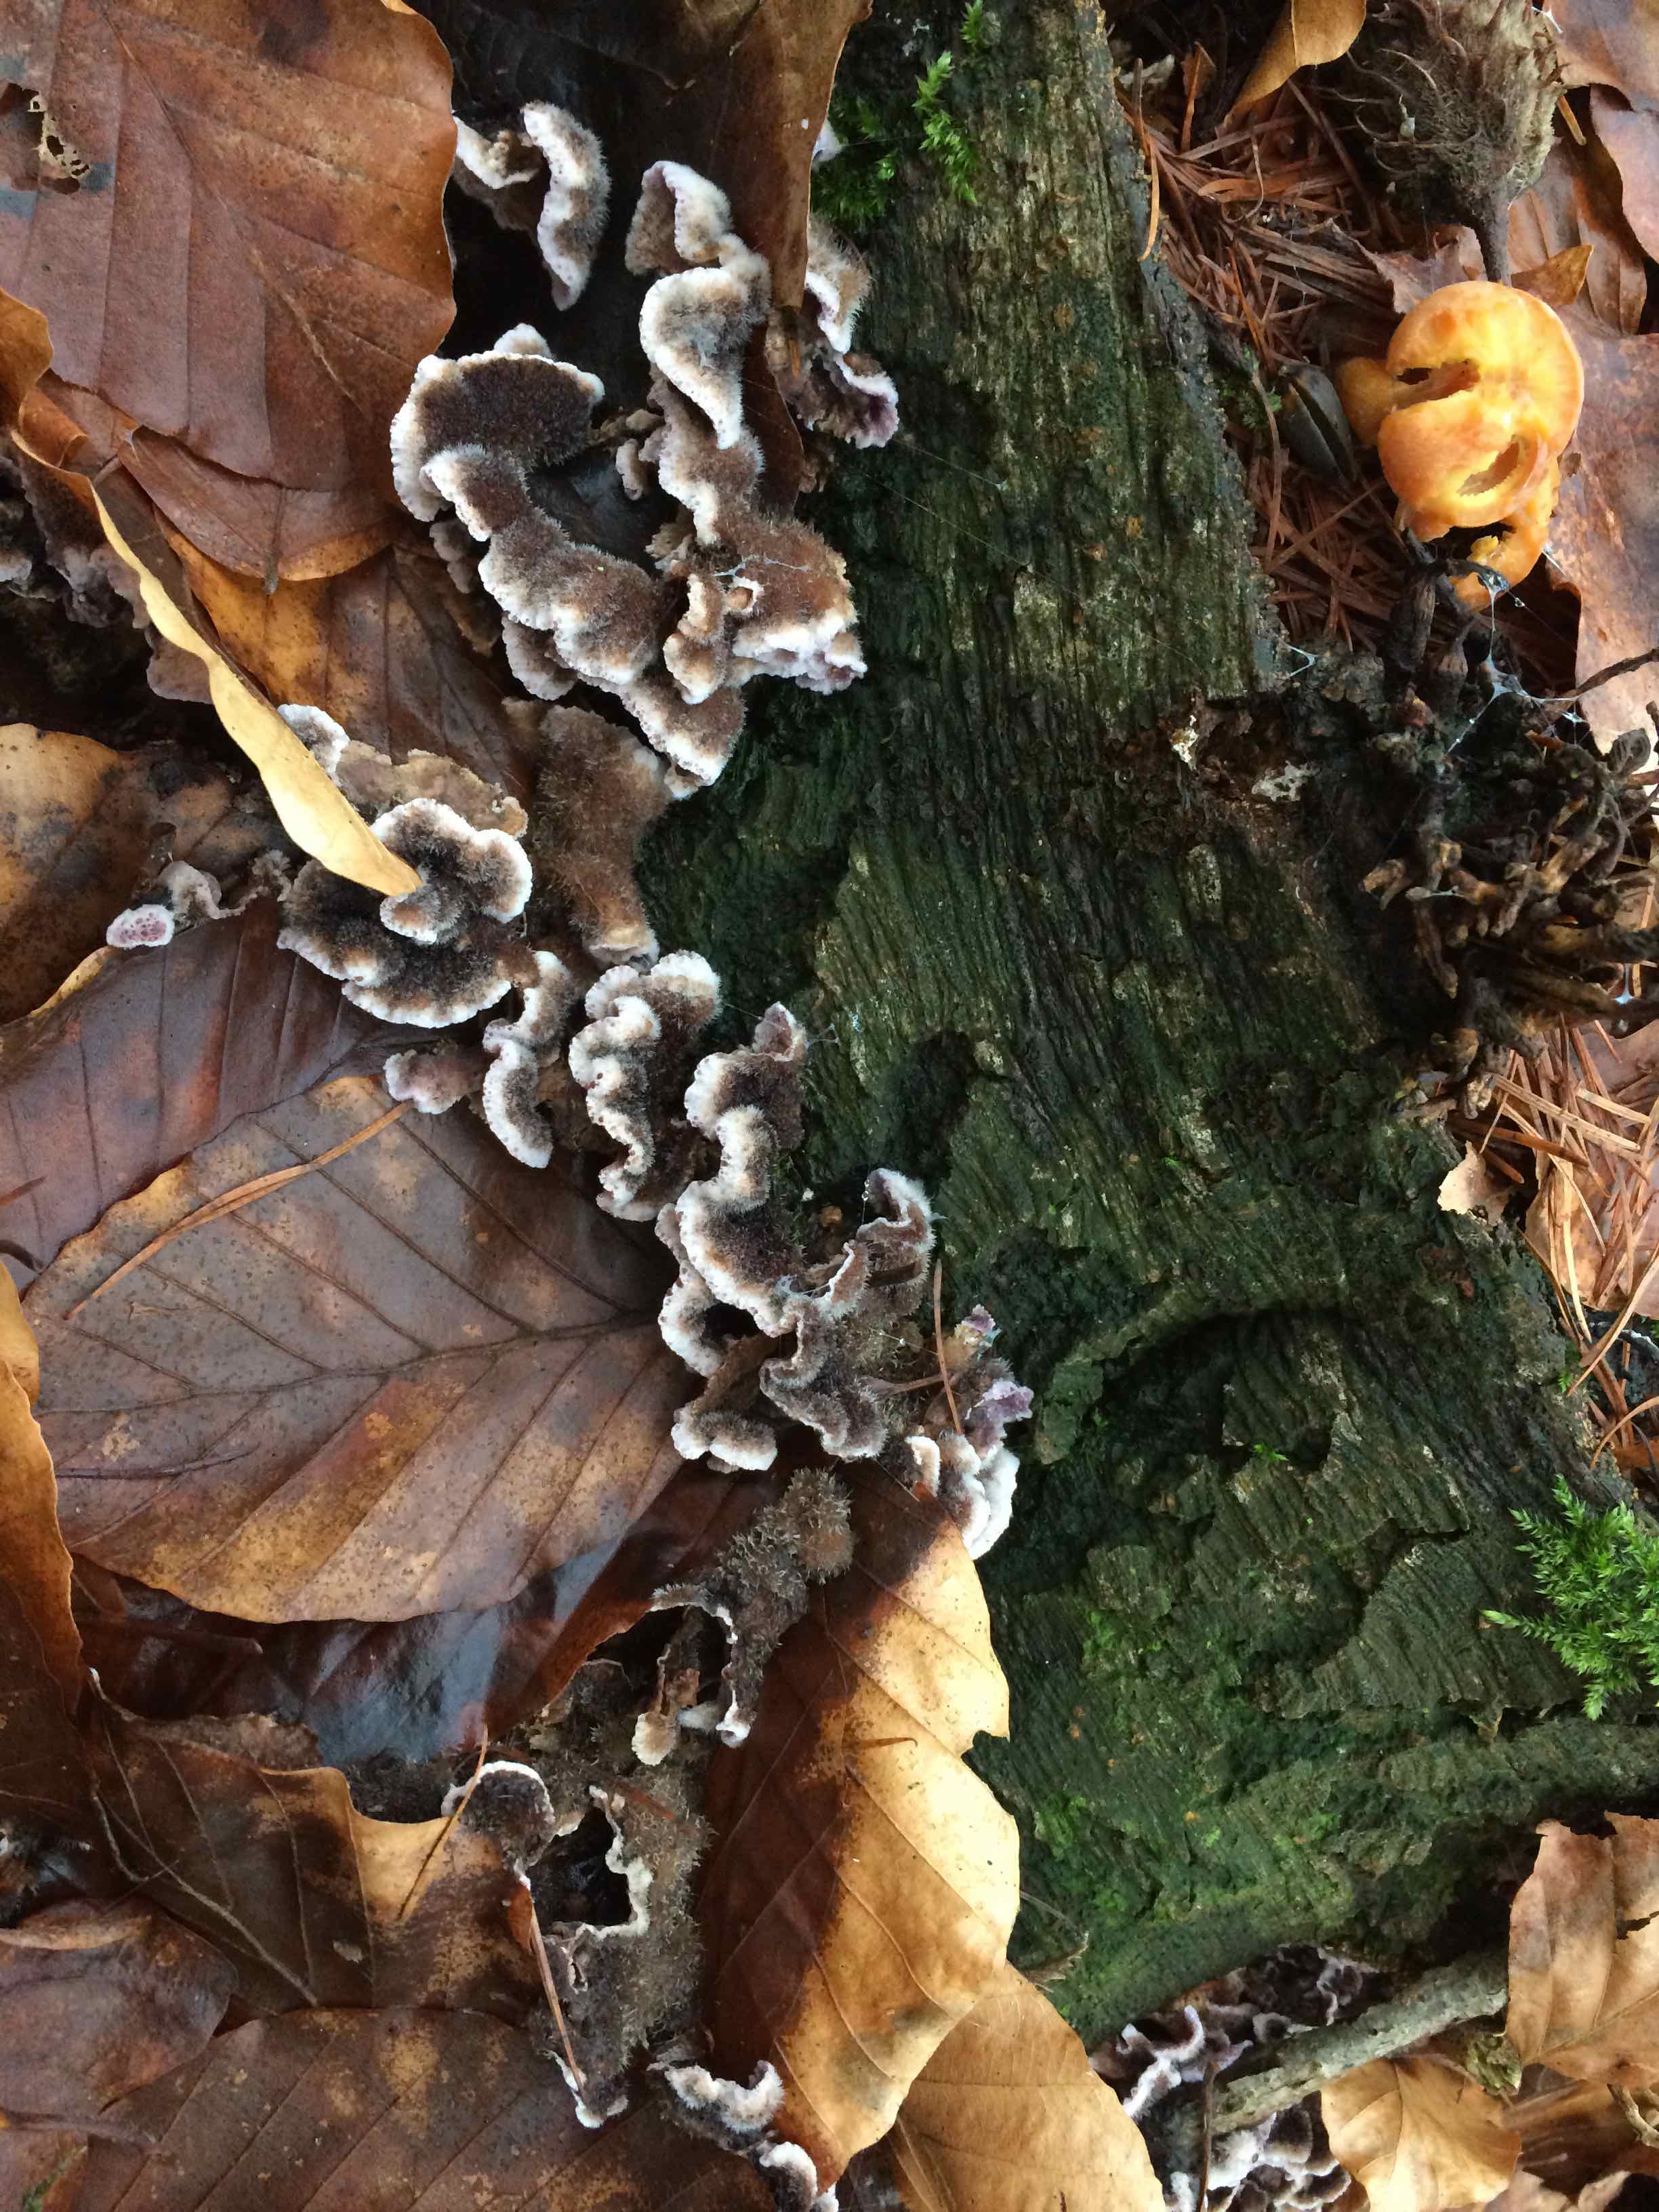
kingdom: Fungi
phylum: Basidiomycota
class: Agaricomycetes
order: Agaricales
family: Cyphellaceae
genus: Chondrostereum
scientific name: Chondrostereum purpureum
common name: purpurlædersvamp
